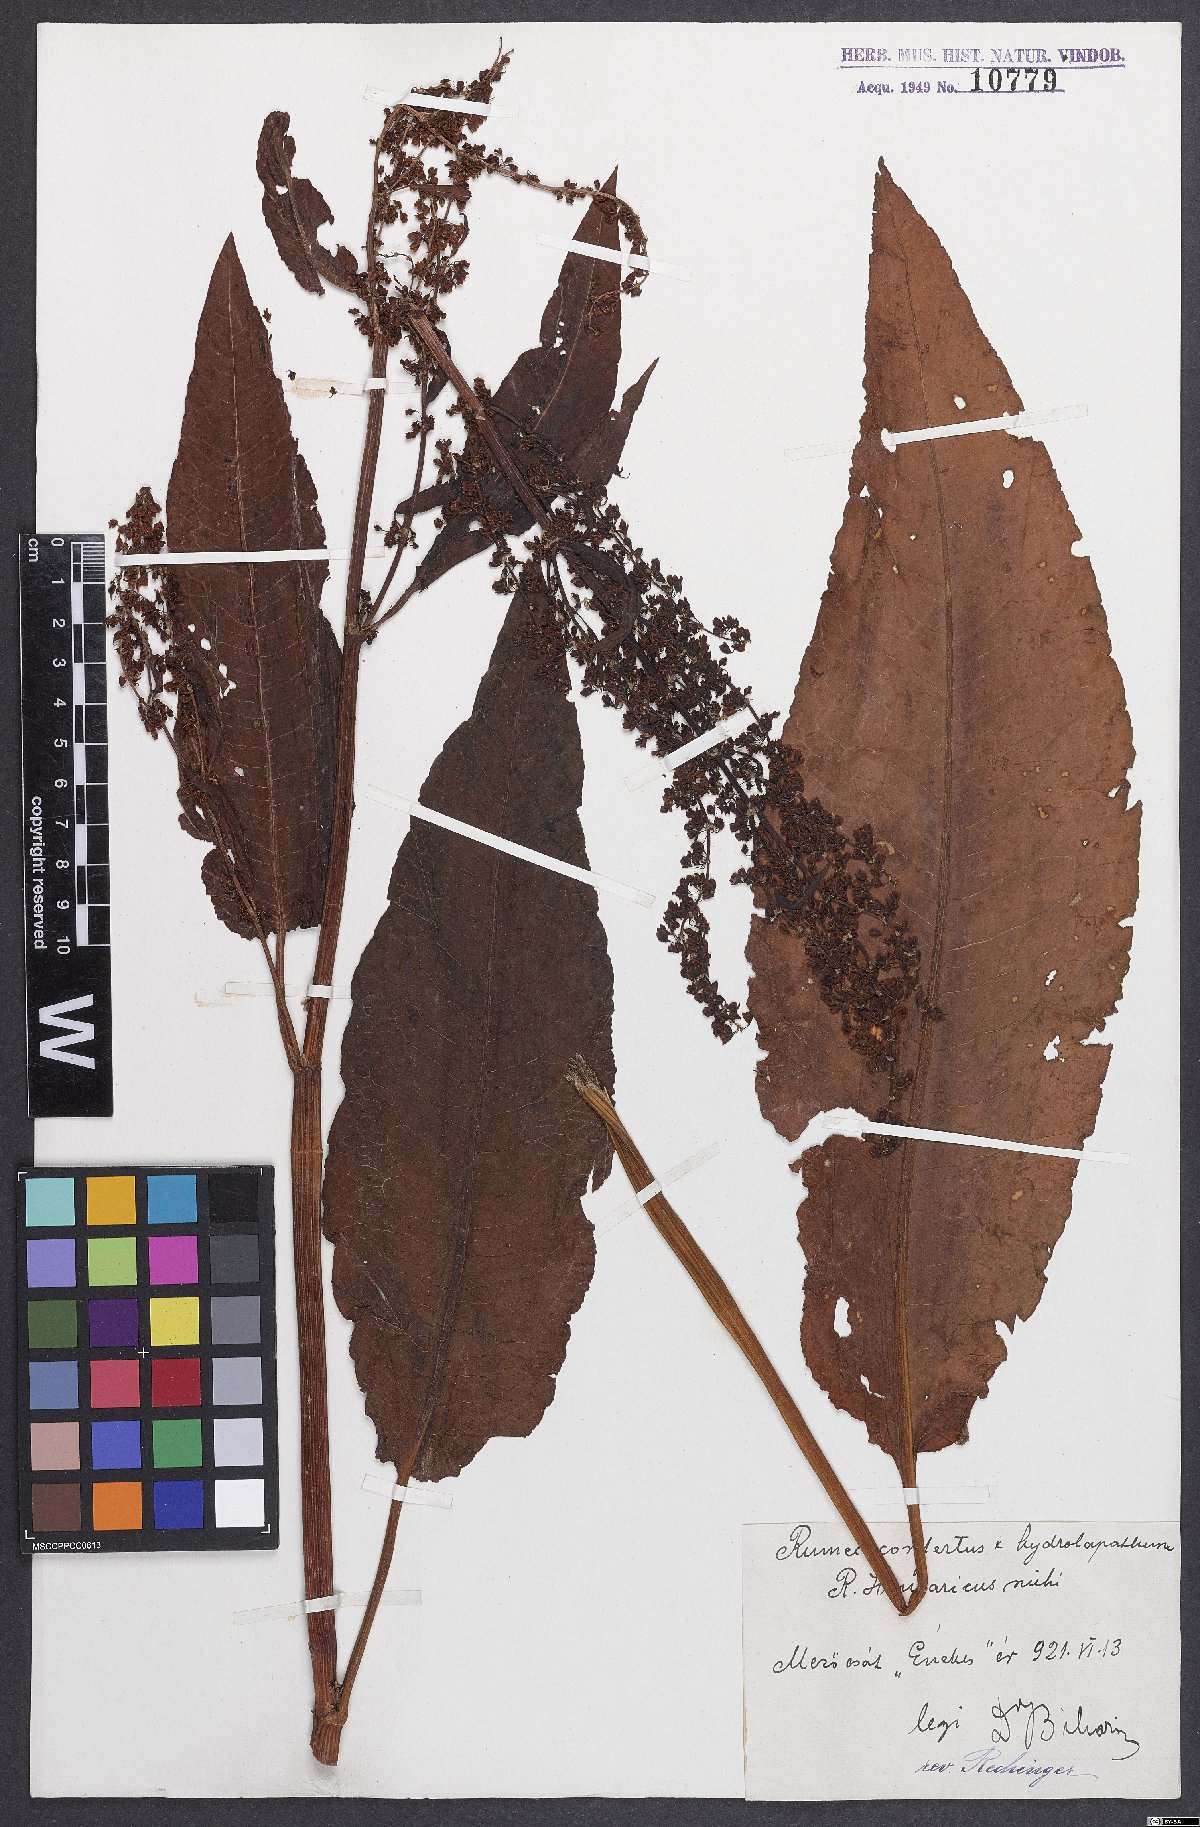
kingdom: Plantae
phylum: Tracheophyta
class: Magnoliopsida
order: Caryophyllales
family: Polygonaceae
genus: Rumex
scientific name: Rumex
